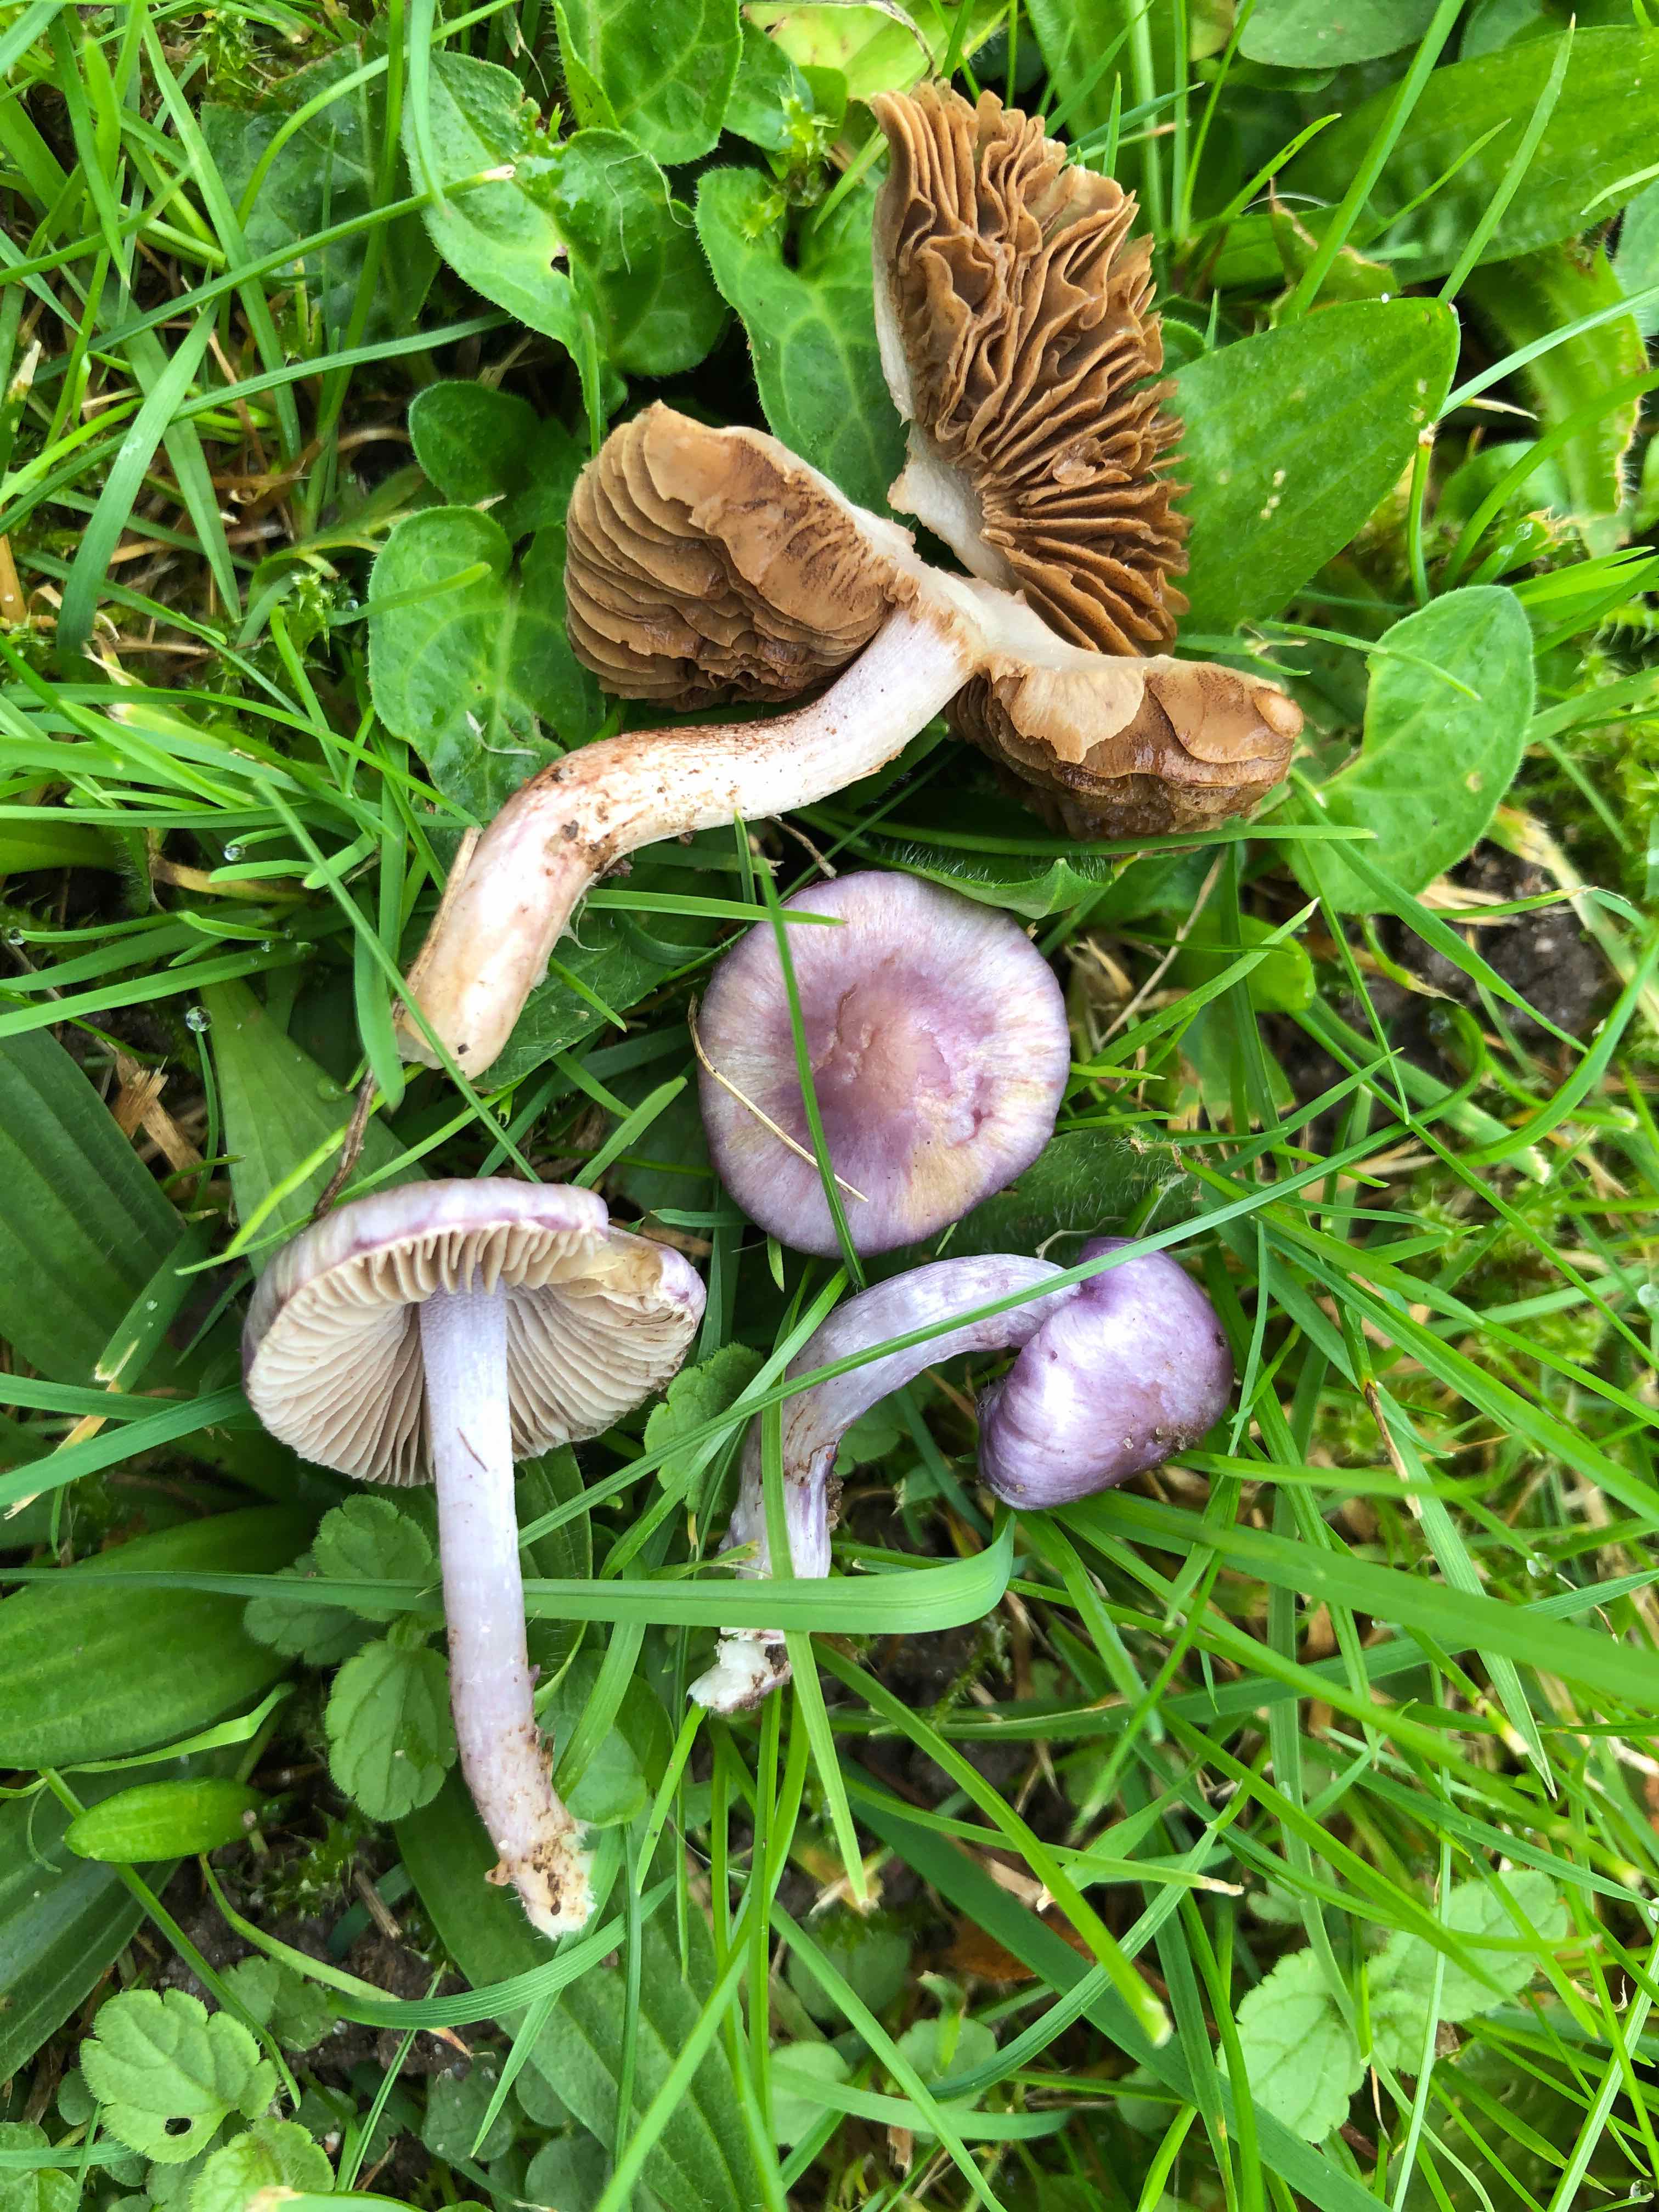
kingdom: Fungi
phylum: Basidiomycota
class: Agaricomycetes
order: Agaricales
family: Inocybaceae
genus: Inocybe
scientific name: Inocybe geophylla
